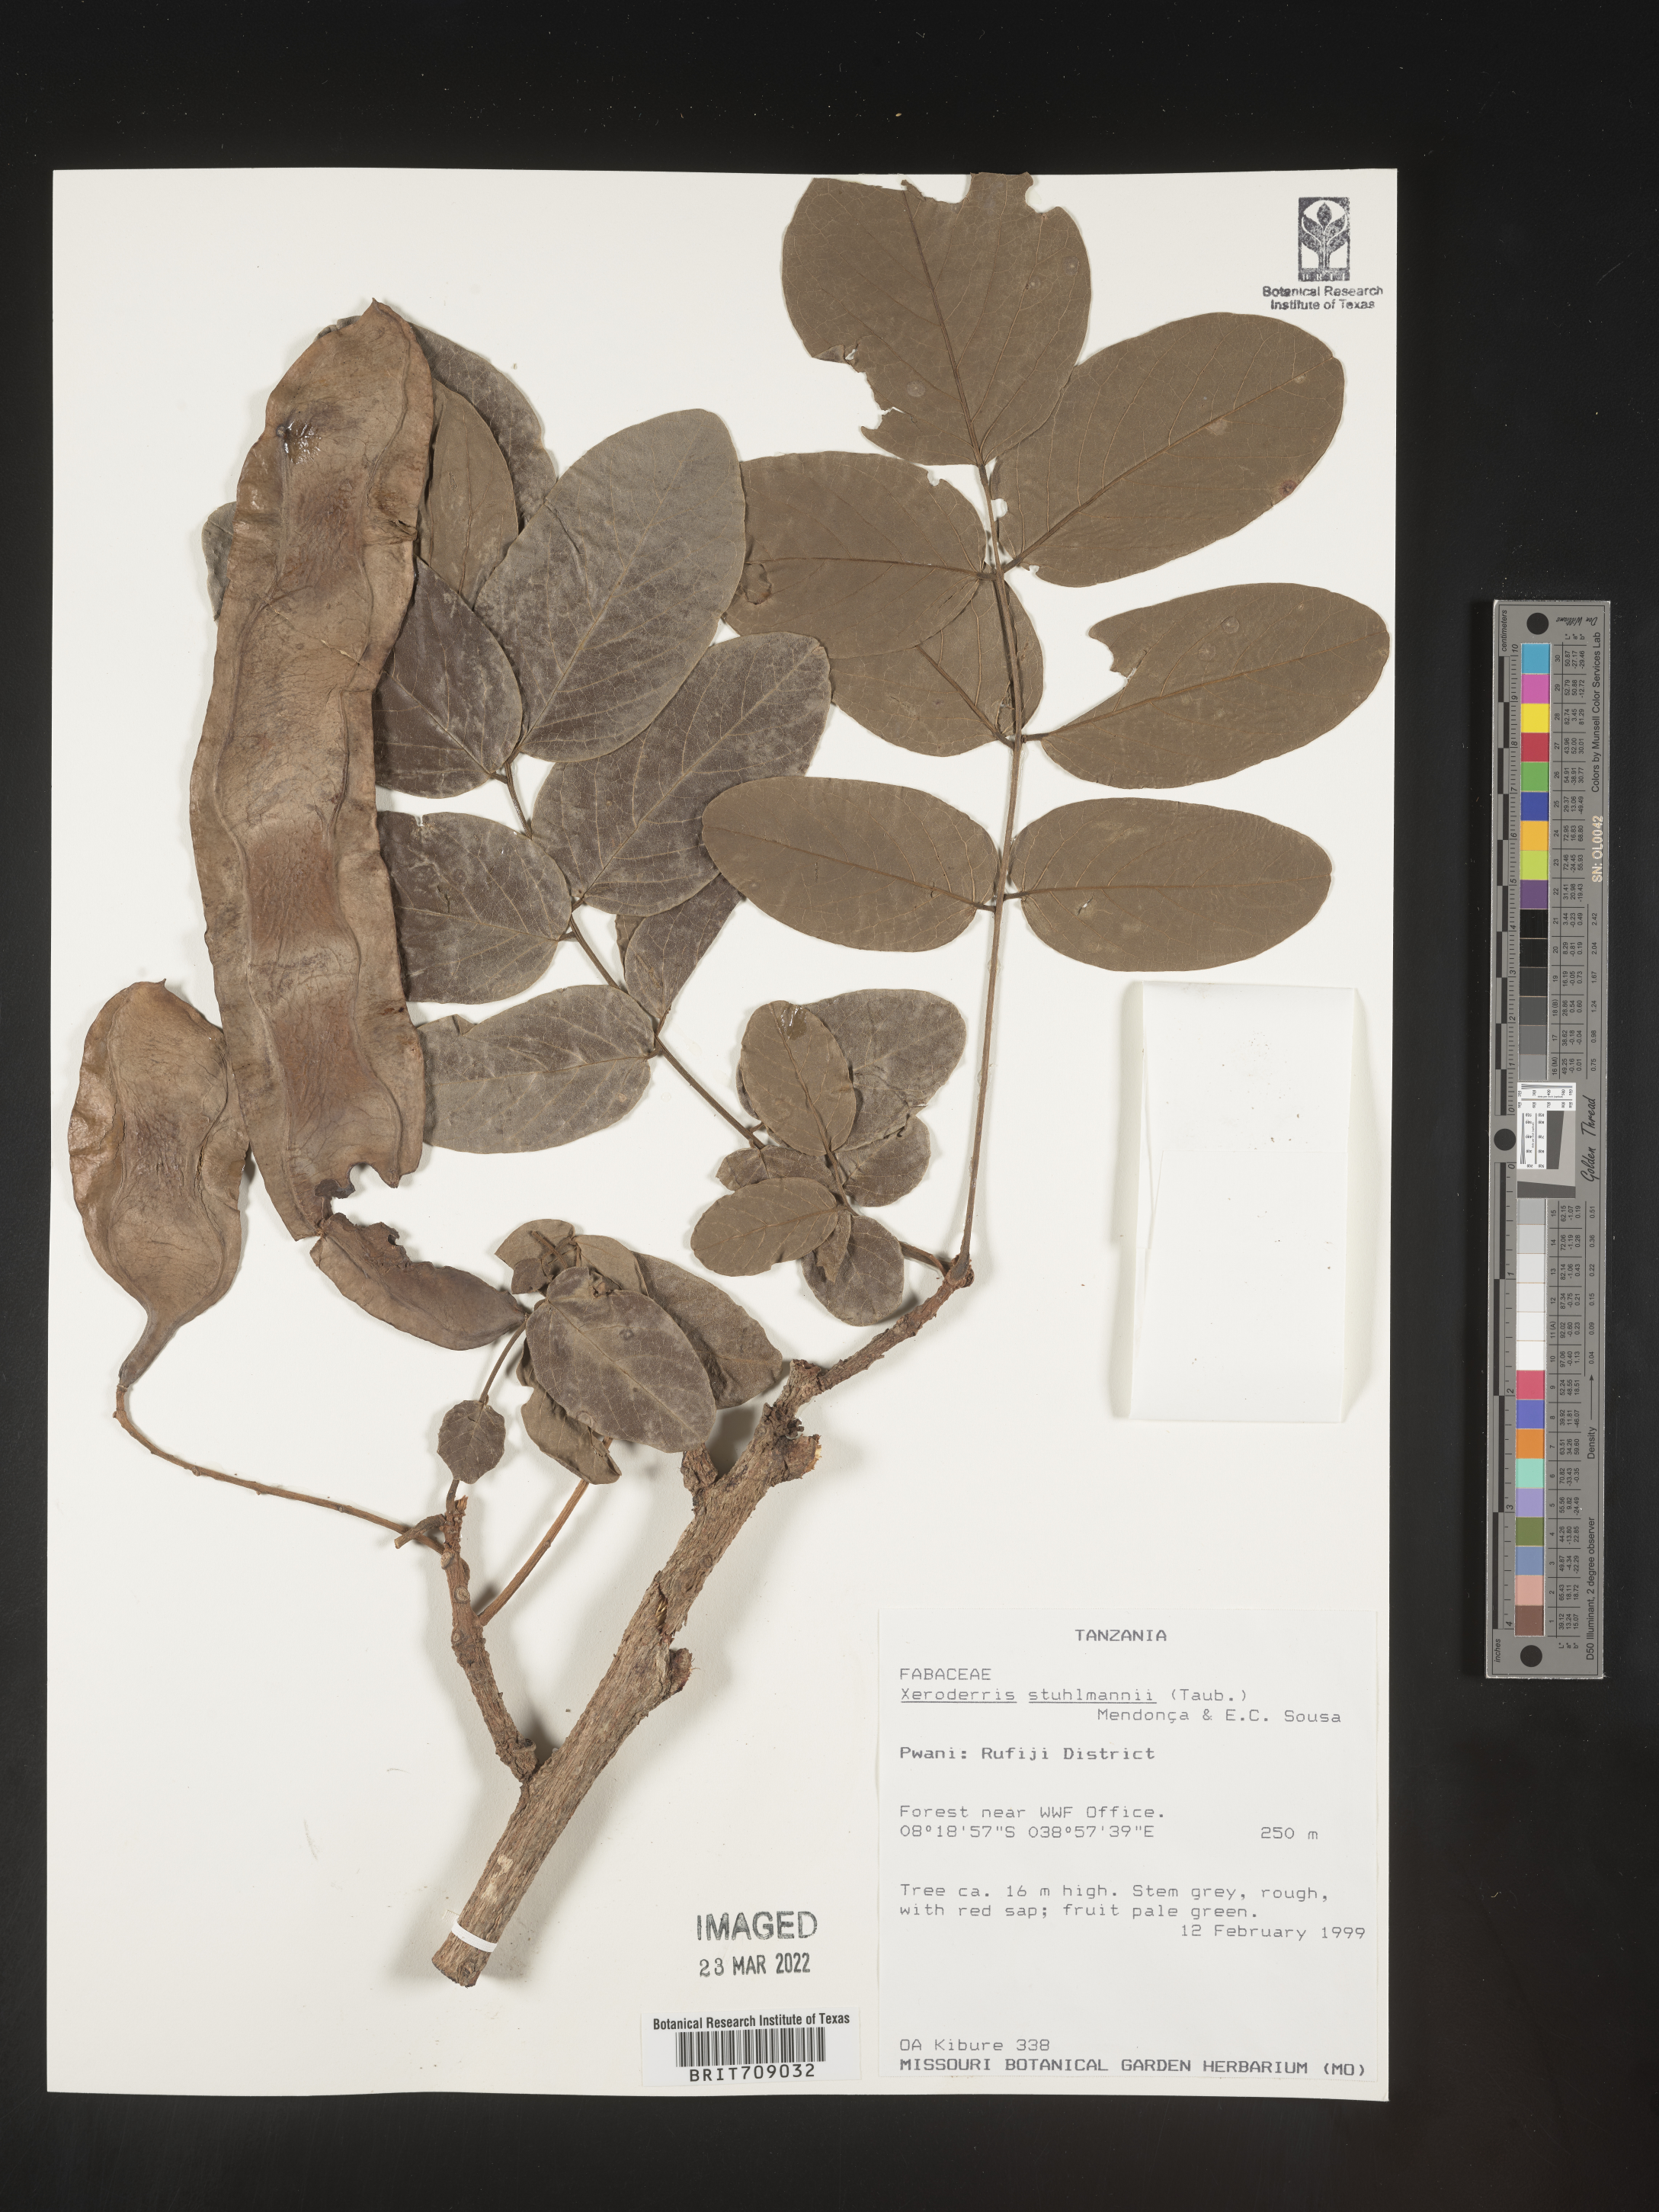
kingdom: Plantae
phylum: Tracheophyta
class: Magnoliopsida
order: Fabales
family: Fabaceae
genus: Aganope
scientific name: Aganope
